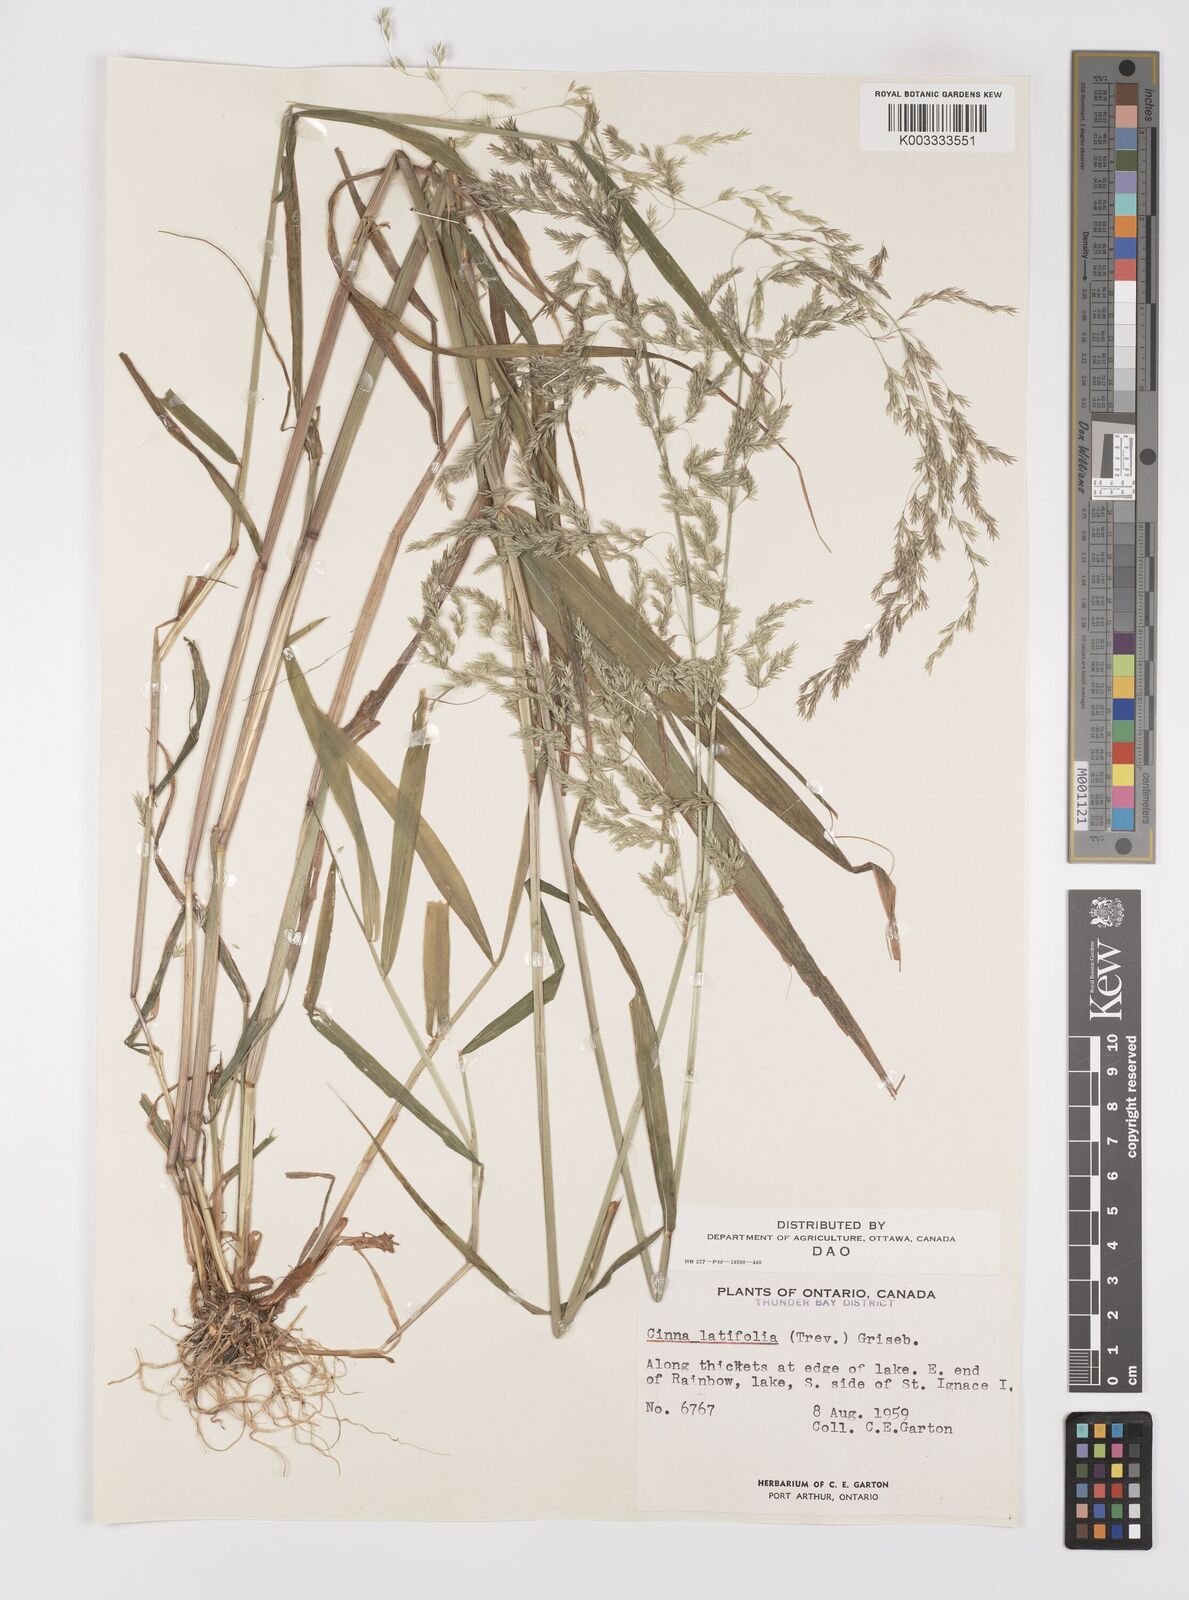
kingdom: Plantae
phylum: Tracheophyta
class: Liliopsida
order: Poales
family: Poaceae
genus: Cinna
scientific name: Cinna latifolia
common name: Drooping woodreed
